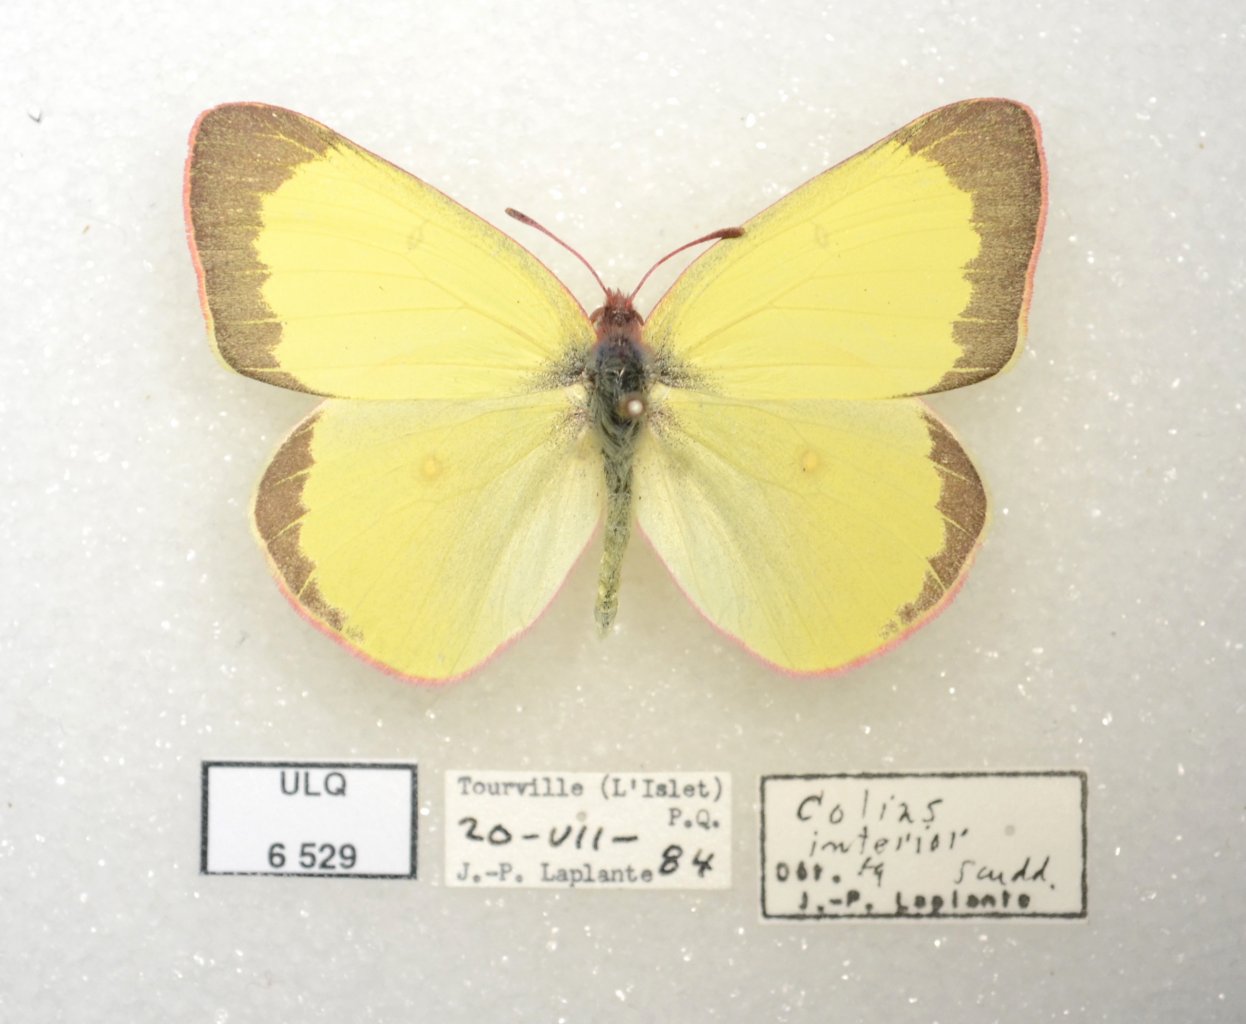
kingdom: Animalia
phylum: Arthropoda
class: Insecta
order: Lepidoptera
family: Pieridae
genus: Colias
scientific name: Colias interior
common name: Pink-edged Sulphur
